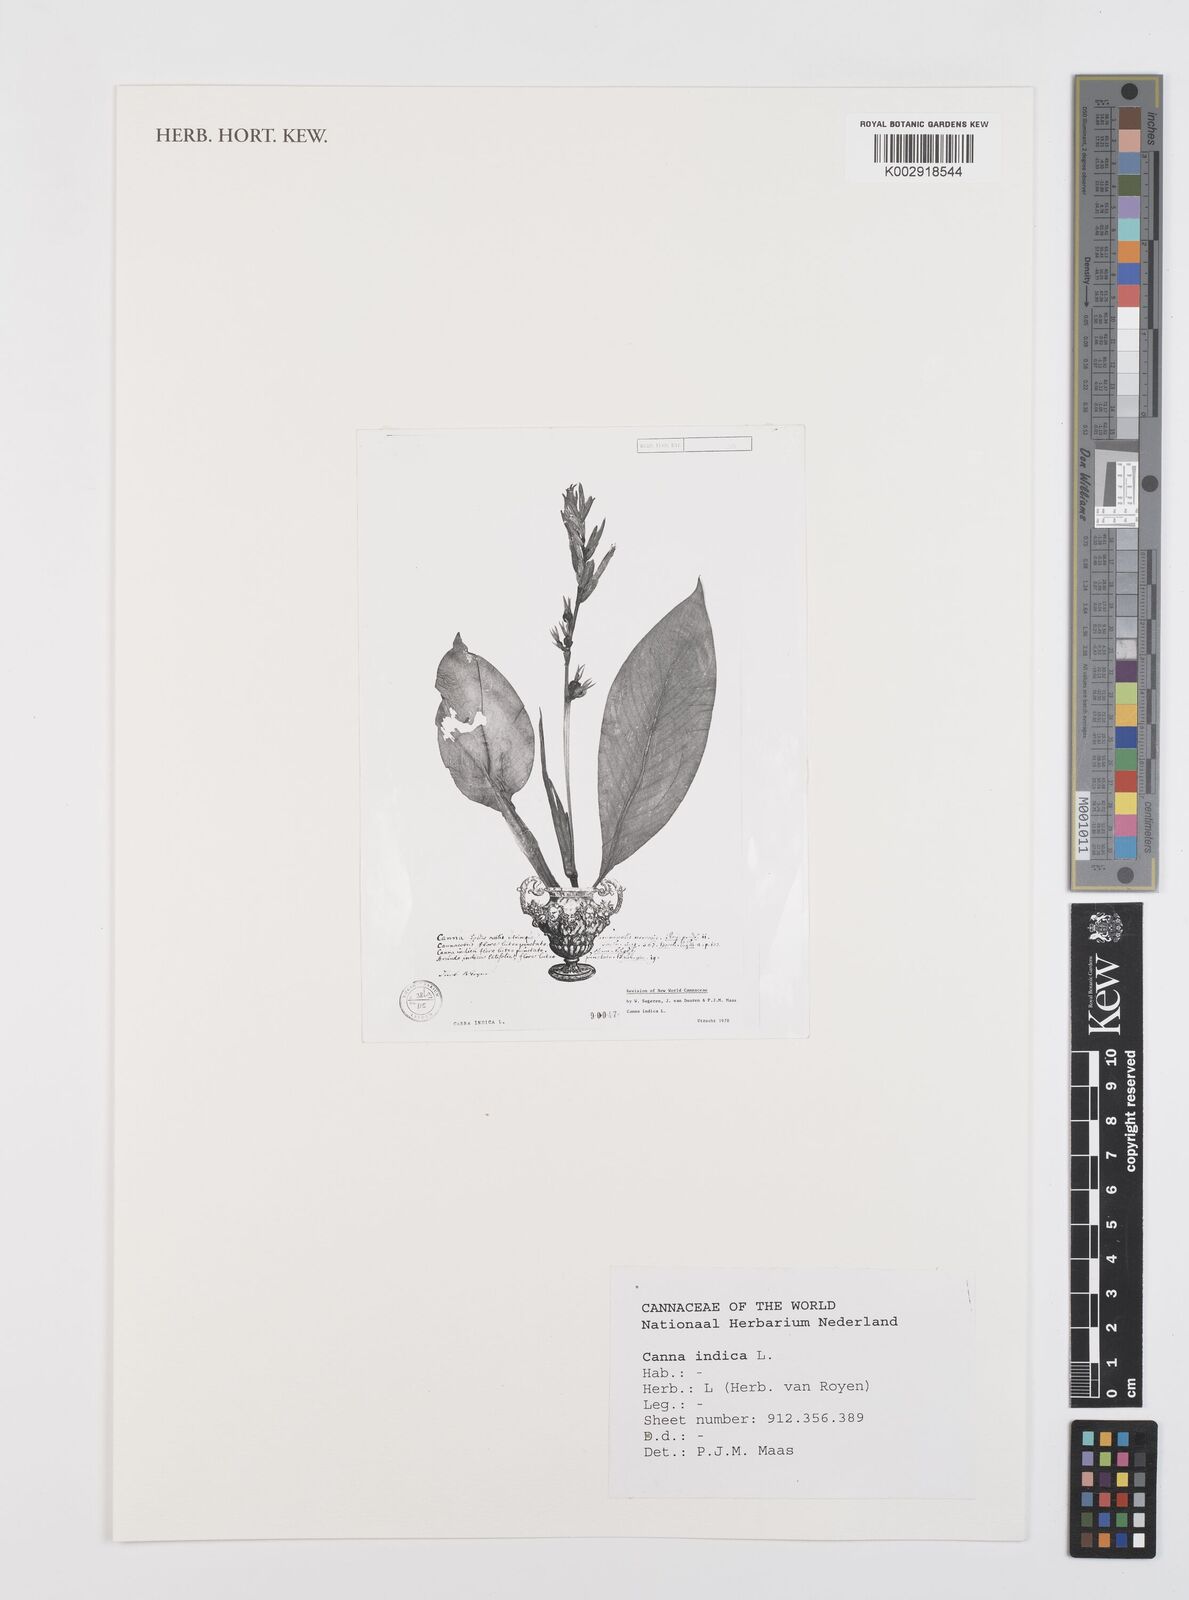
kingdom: Plantae
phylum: Tracheophyta
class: Liliopsida
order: Zingiberales
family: Cannaceae
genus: Canna
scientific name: Canna indica
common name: Indian shot
